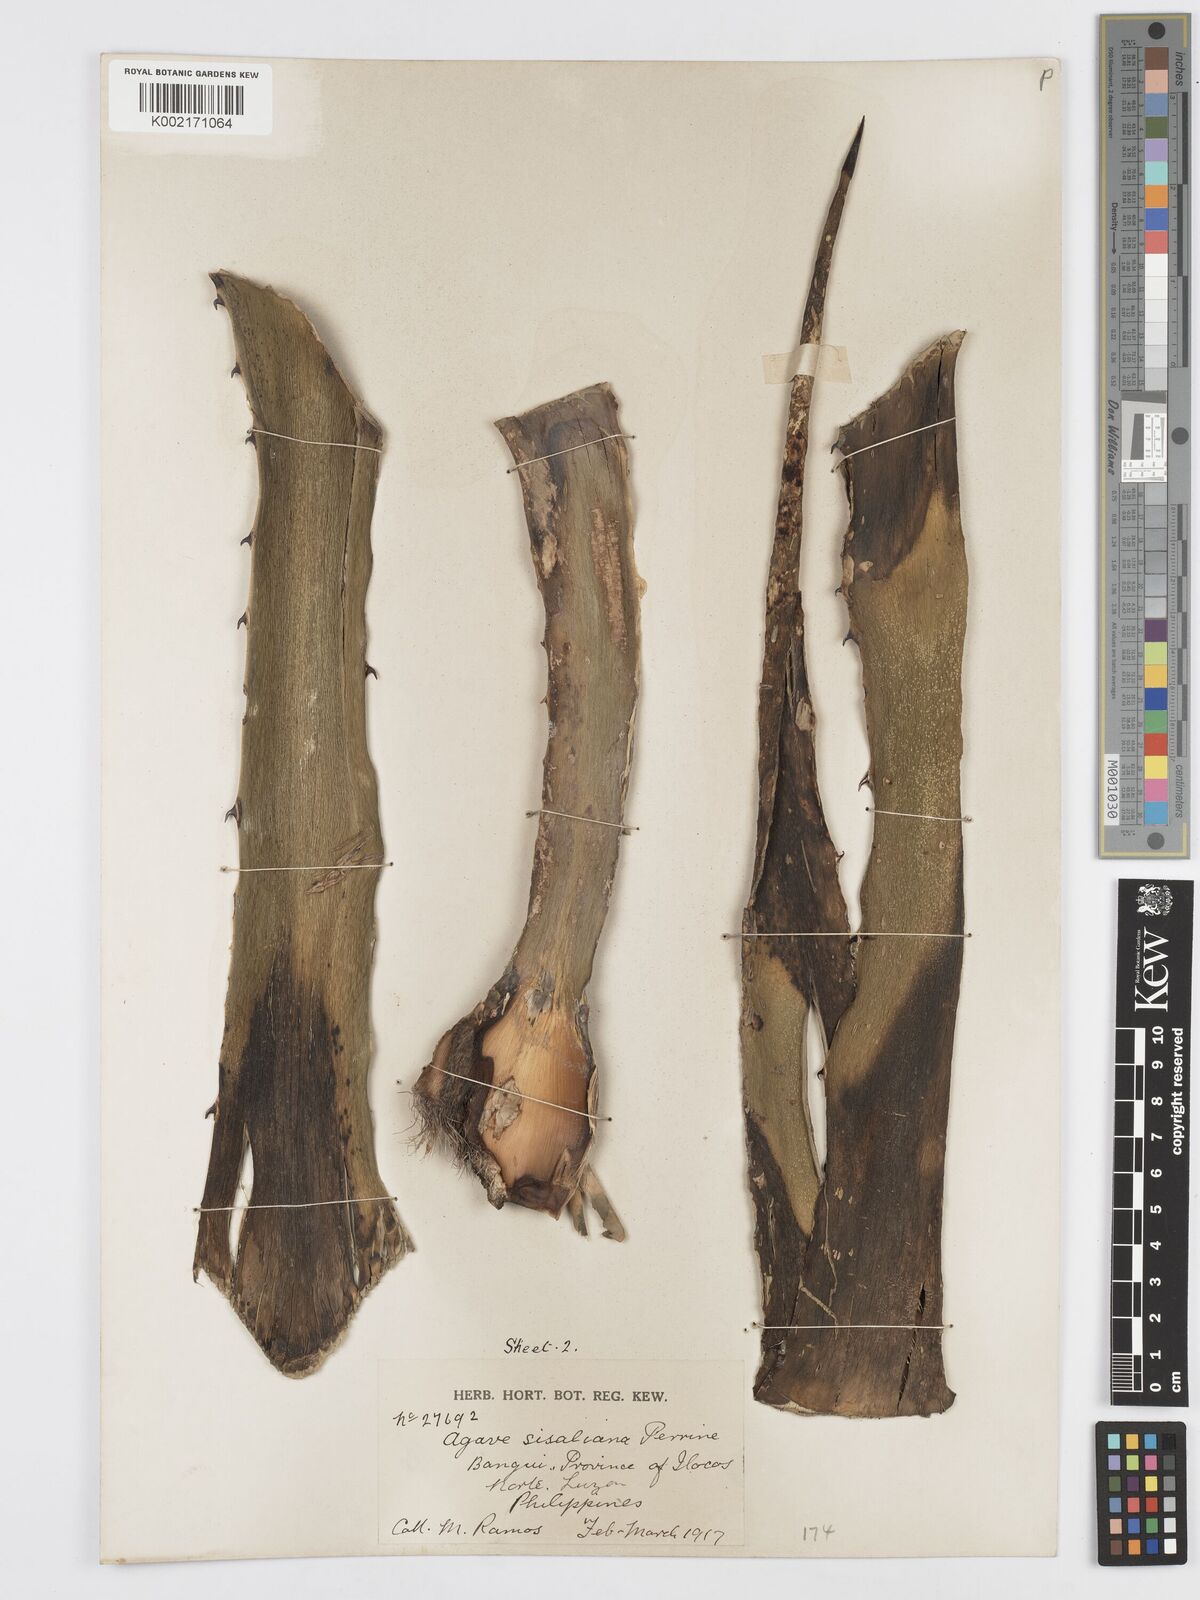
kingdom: Plantae
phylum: Tracheophyta
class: Liliopsida
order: Asparagales
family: Asparagaceae
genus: Agave
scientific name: Agave sisalana
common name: Sisal hemp
